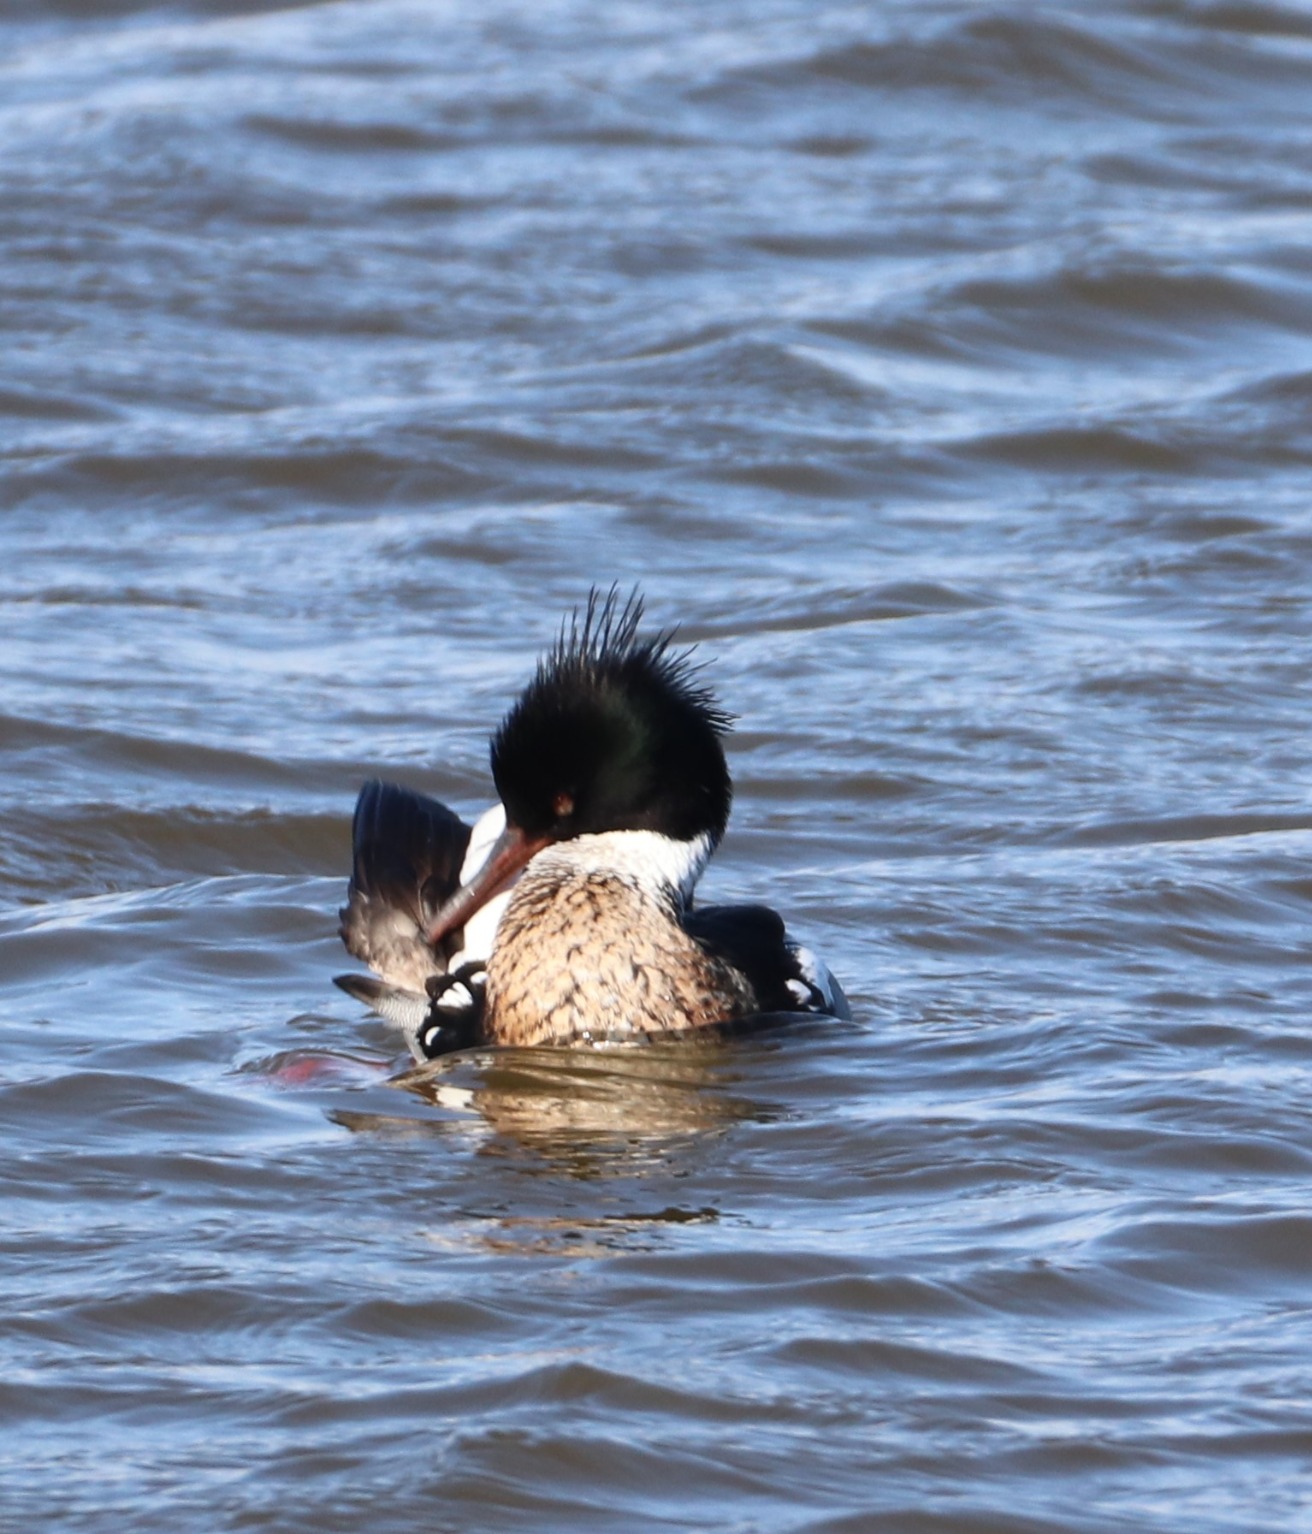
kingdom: Animalia
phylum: Chordata
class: Aves
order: Anseriformes
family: Anatidae
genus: Mergus
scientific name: Mergus serrator
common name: Toppet skallesluger
